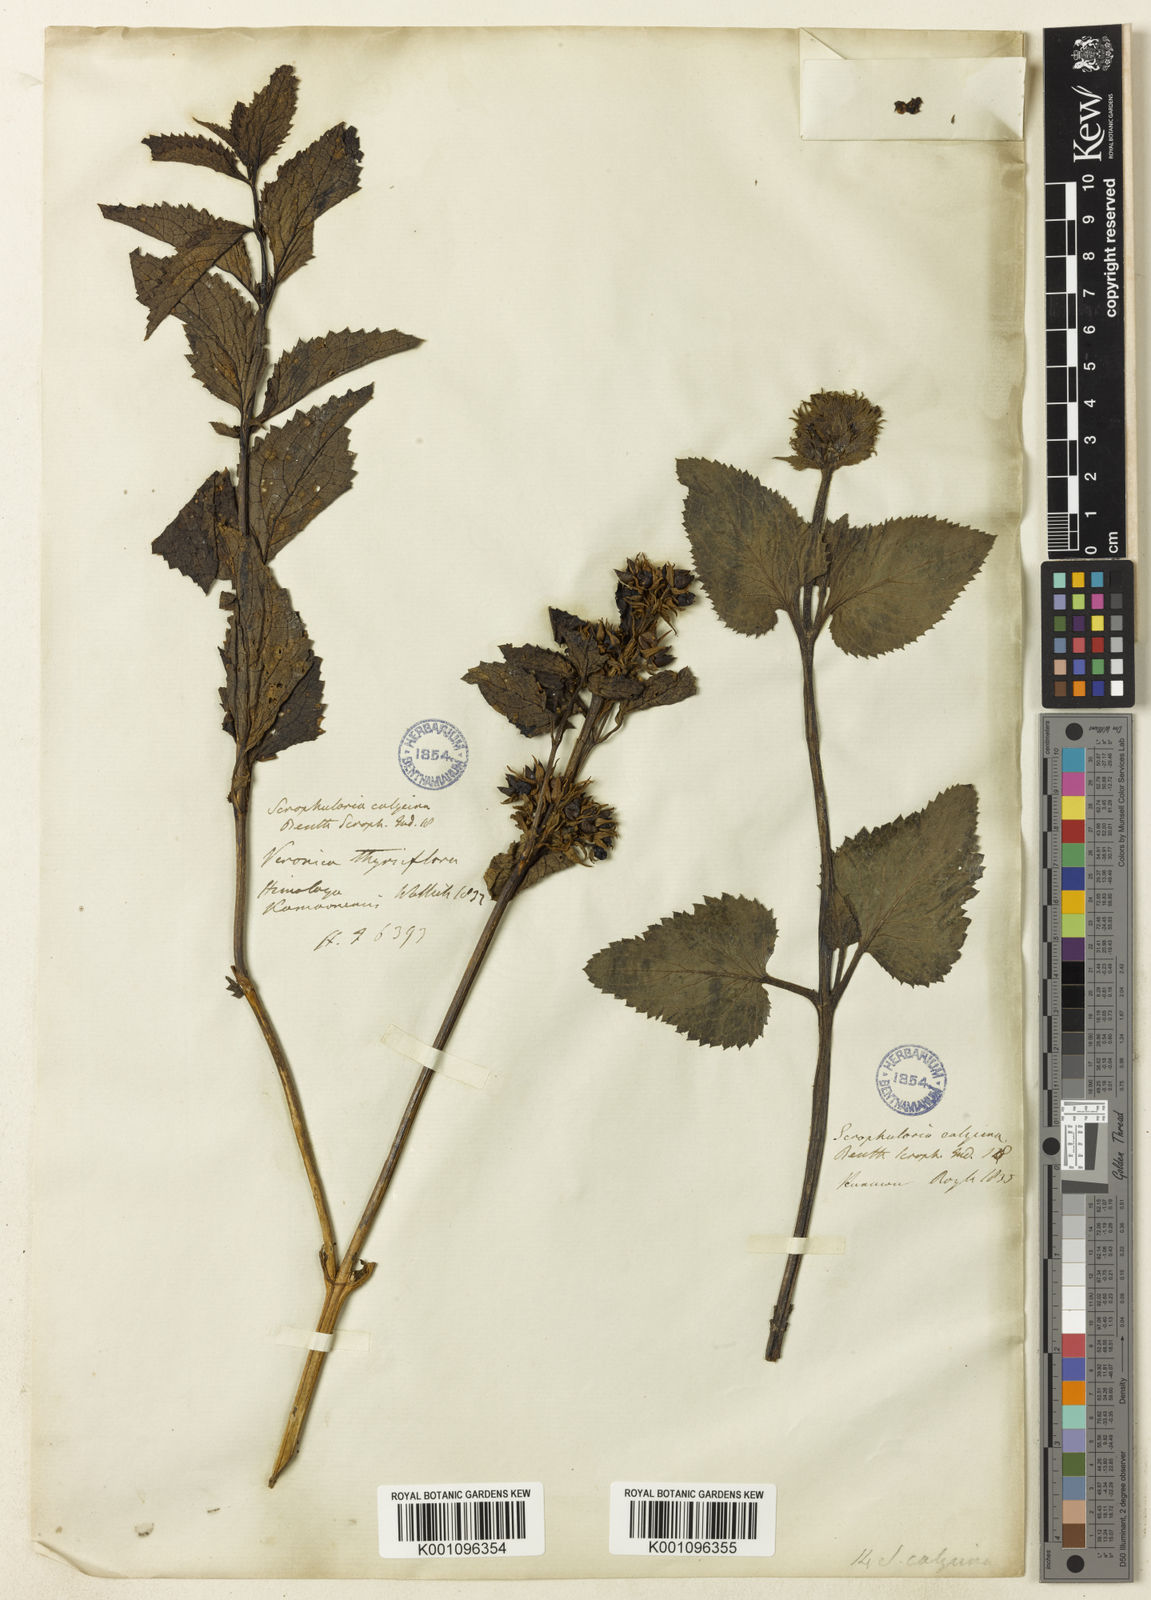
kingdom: Plantae
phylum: Tracheophyta
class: Magnoliopsida
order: Lamiales
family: Scrophulariaceae
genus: Scrophularia
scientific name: Scrophularia calycina
